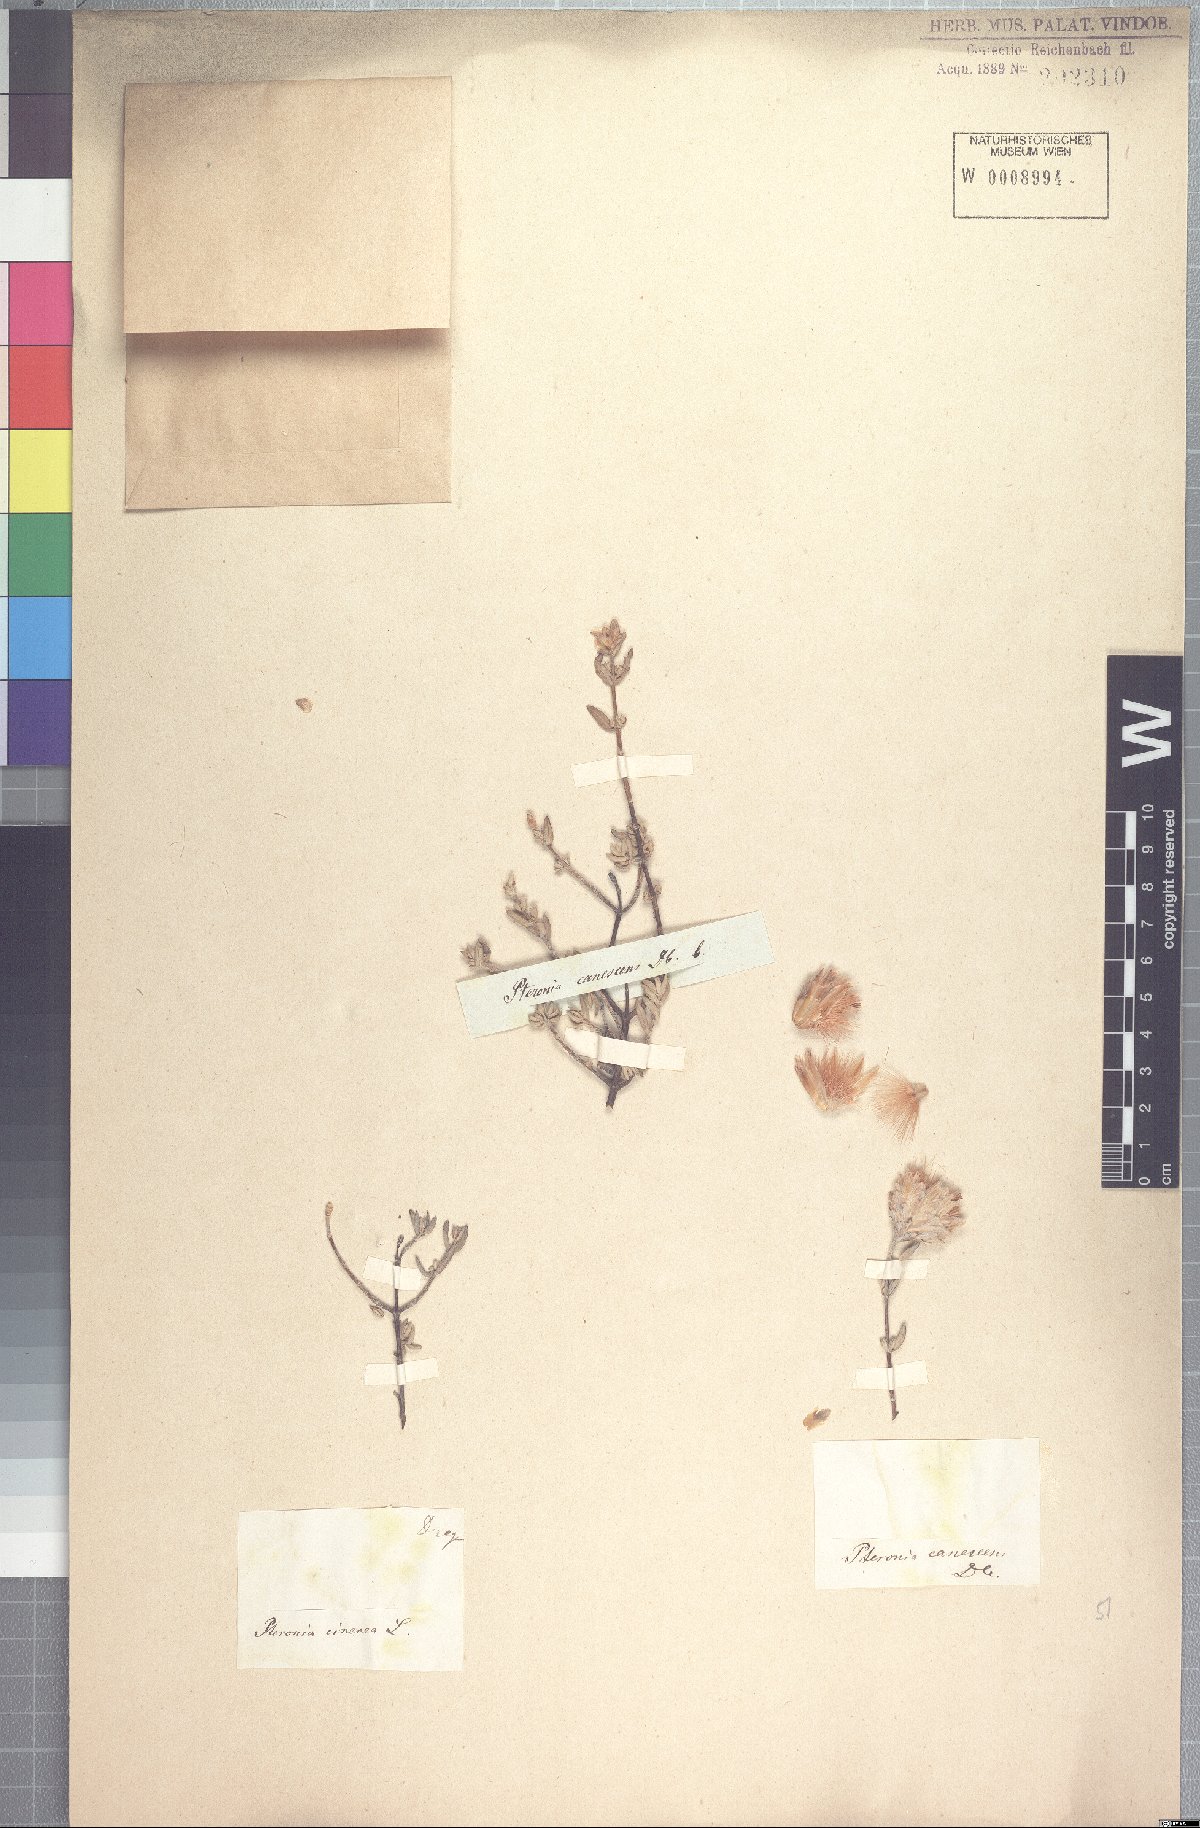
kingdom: Plantae
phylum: Tracheophyta
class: Magnoliopsida
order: Asterales
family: Asteraceae
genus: Pteronia
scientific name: Pteronia cinerea
